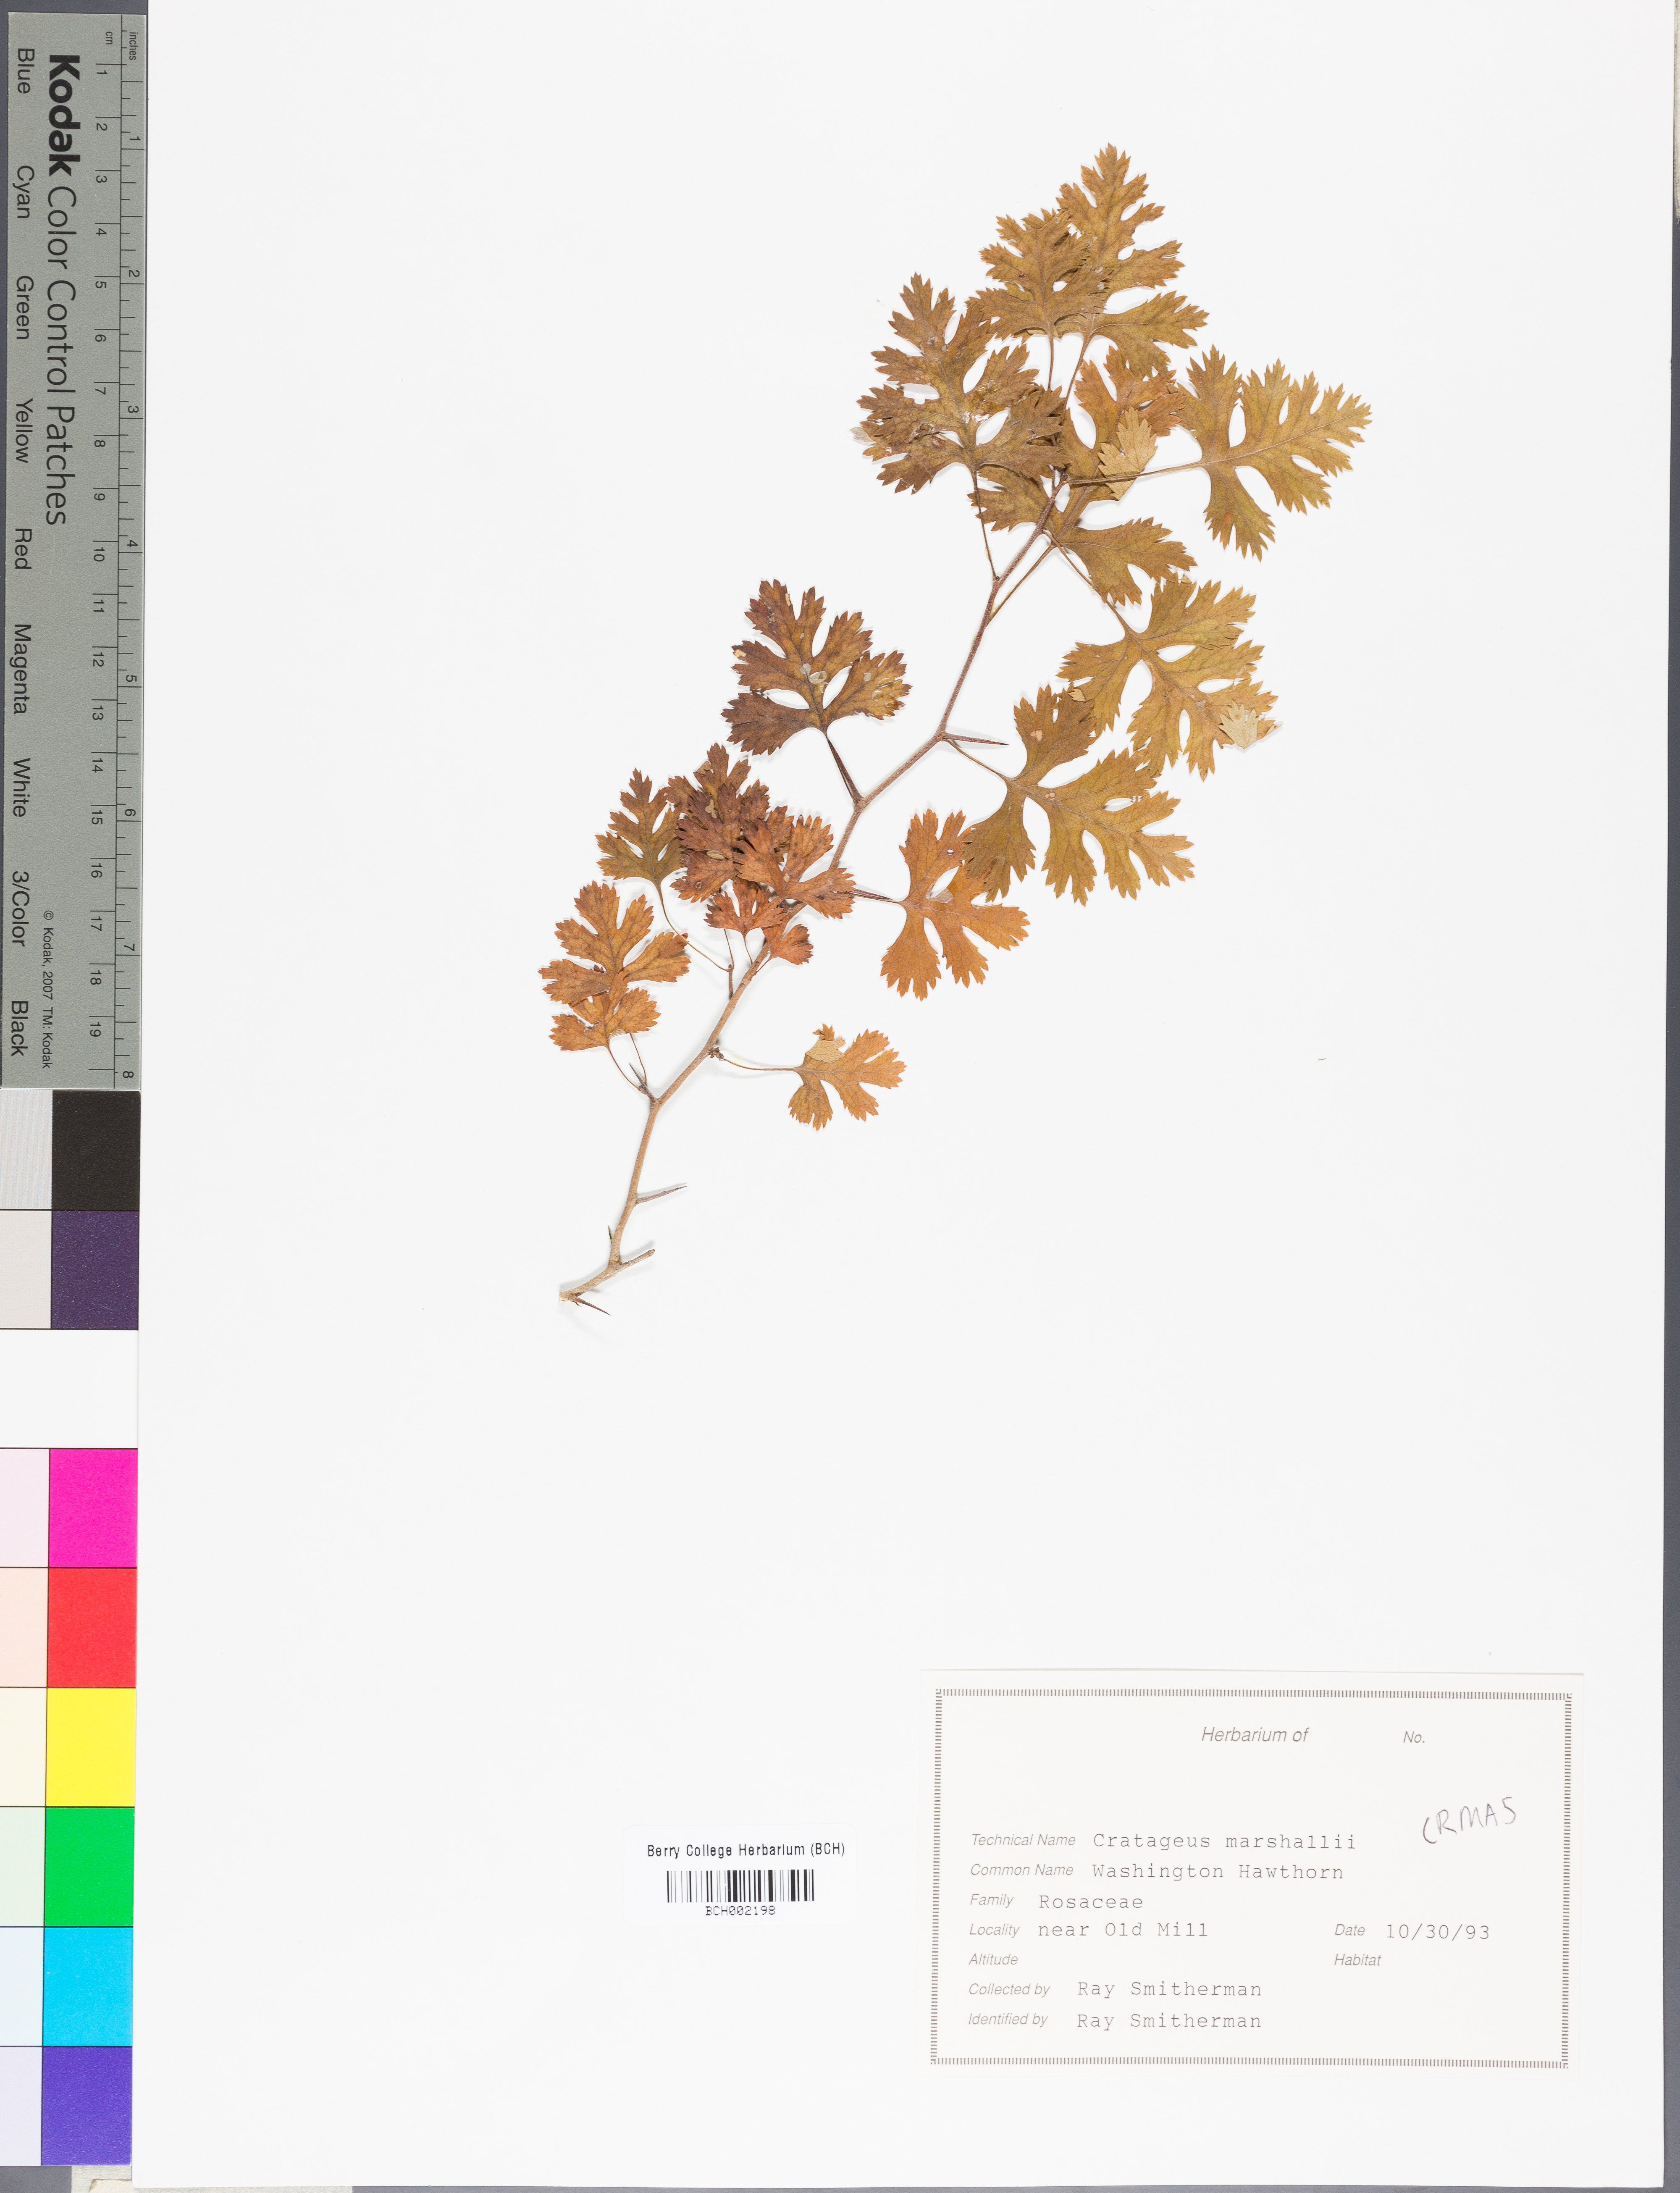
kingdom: Plantae
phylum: Tracheophyta
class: Magnoliopsida
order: Rosales
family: Rosaceae
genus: Crataegus
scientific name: Crataegus marshallii
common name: Parsley-hawthorn
